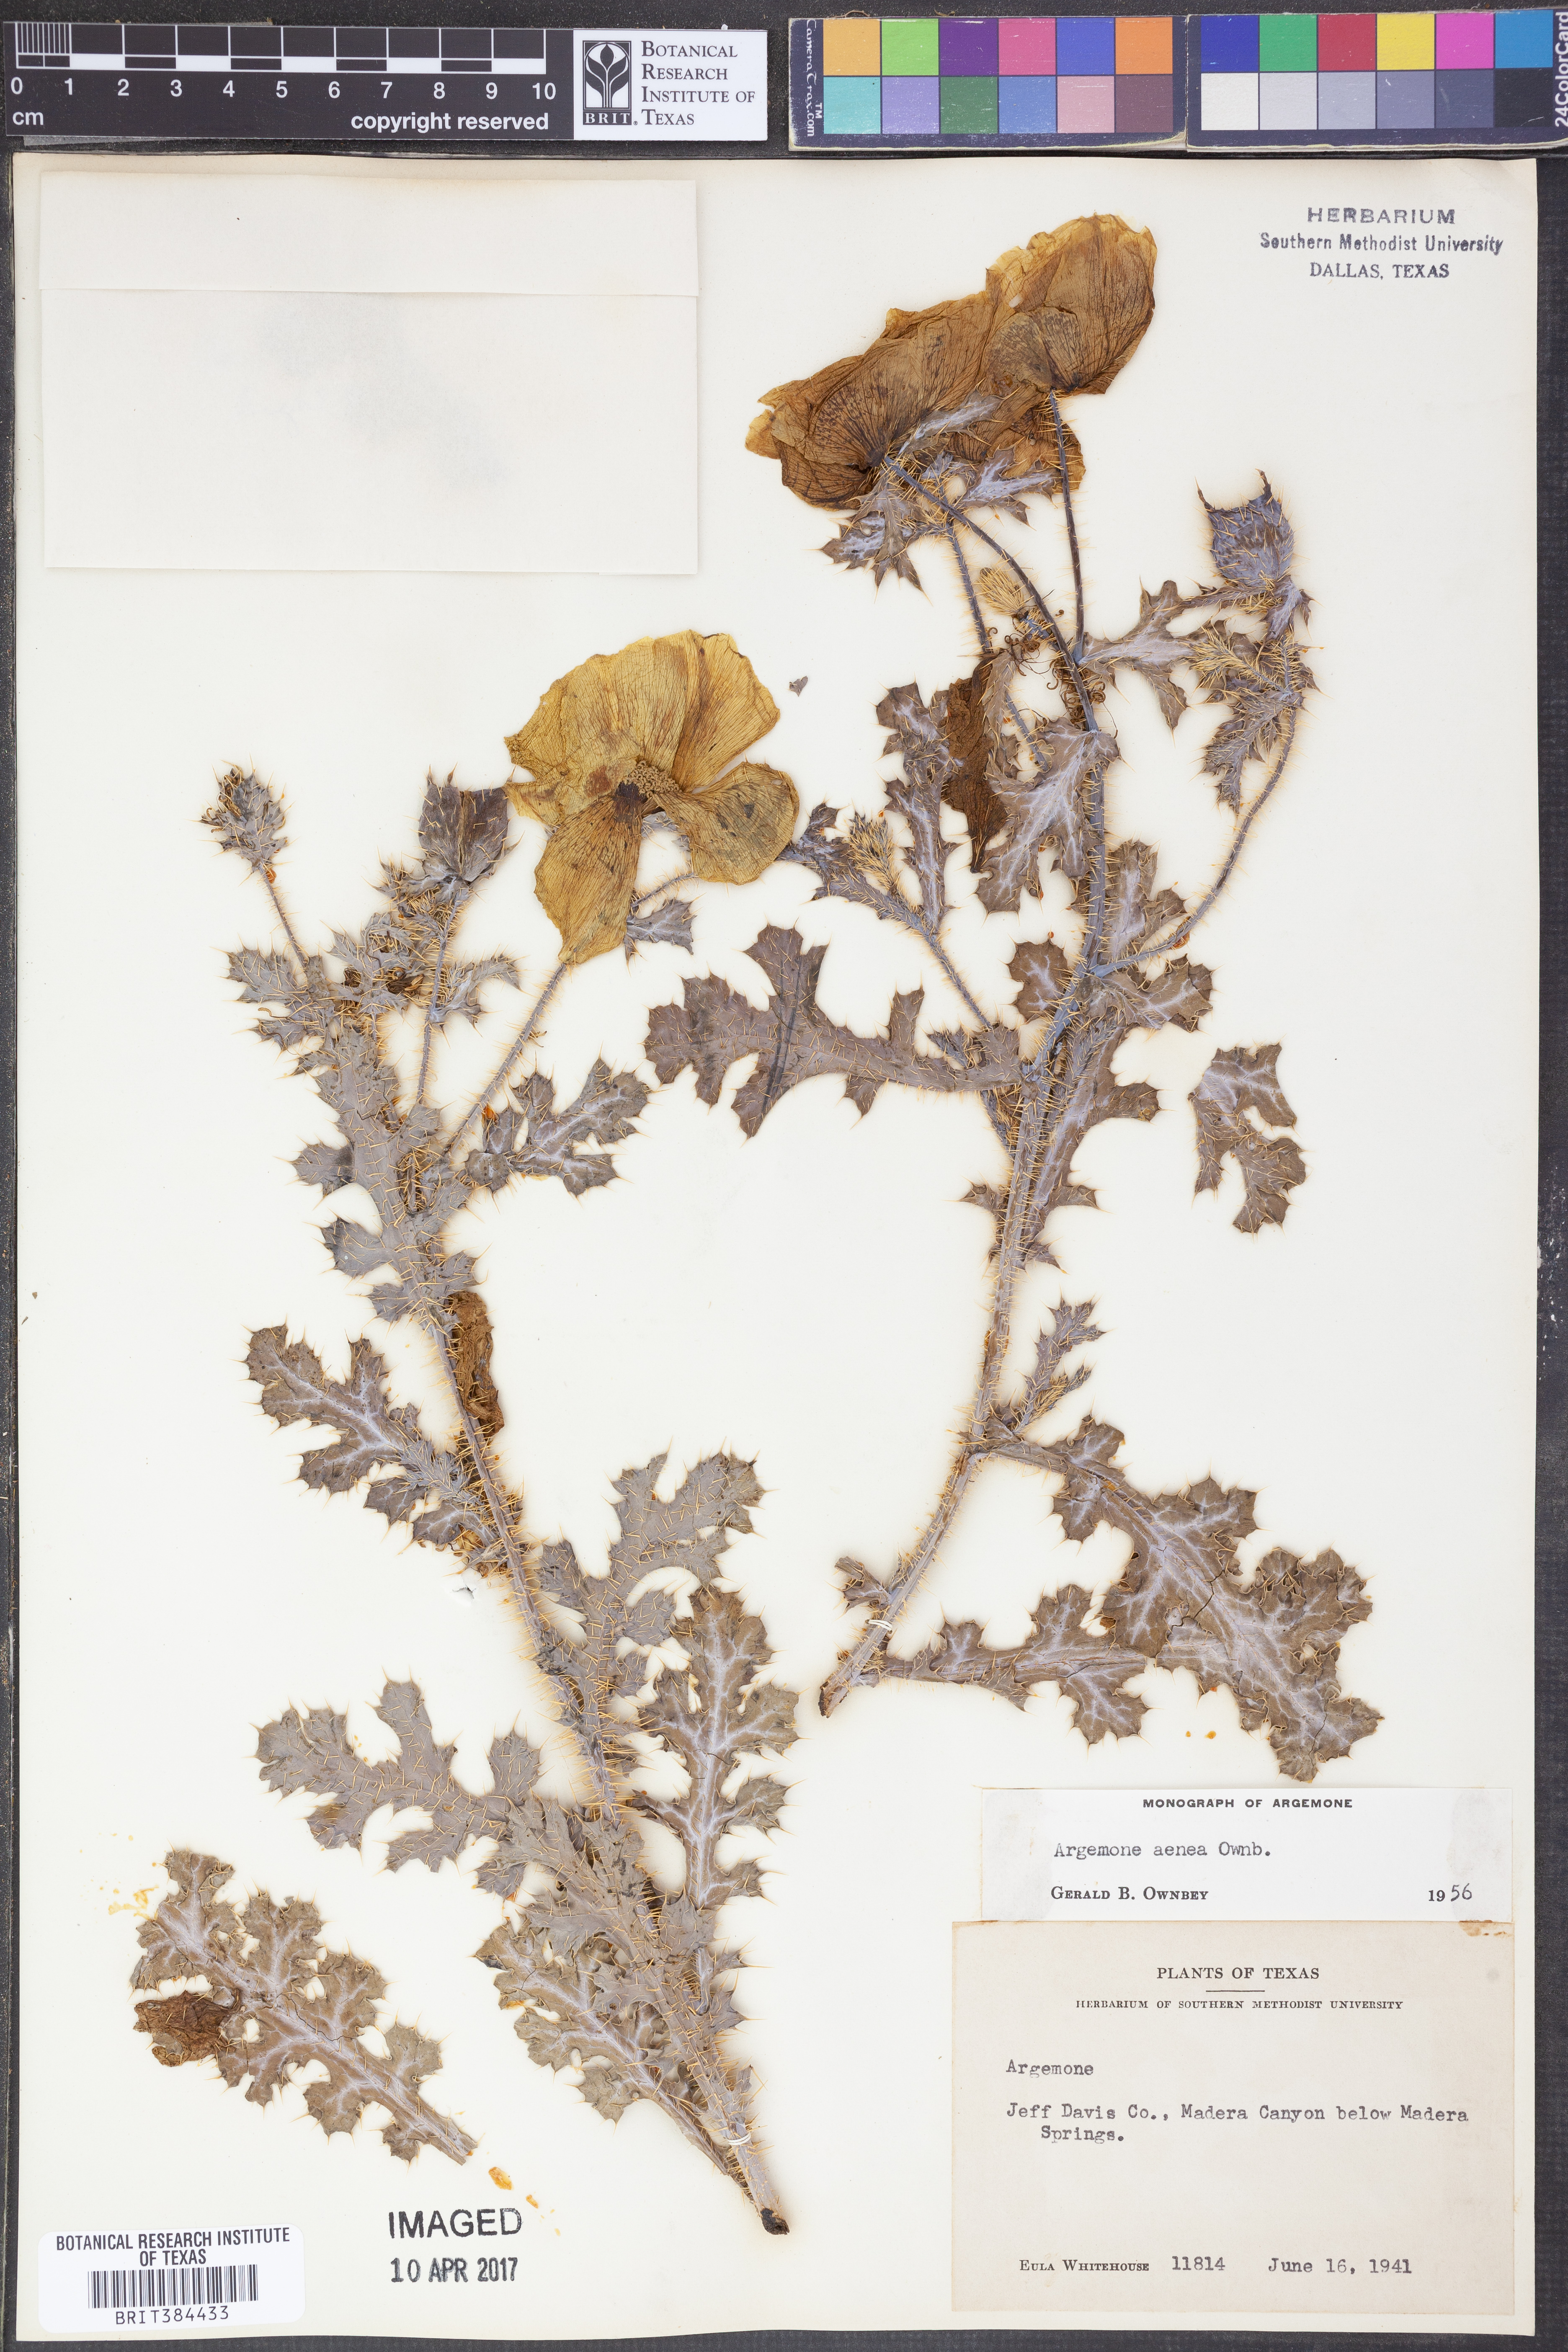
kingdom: Plantae
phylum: Tracheophyta
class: Magnoliopsida
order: Ranunculales
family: Papaveraceae
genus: Argemone
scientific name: Argemone aenea
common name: Golden prickly-poppy
